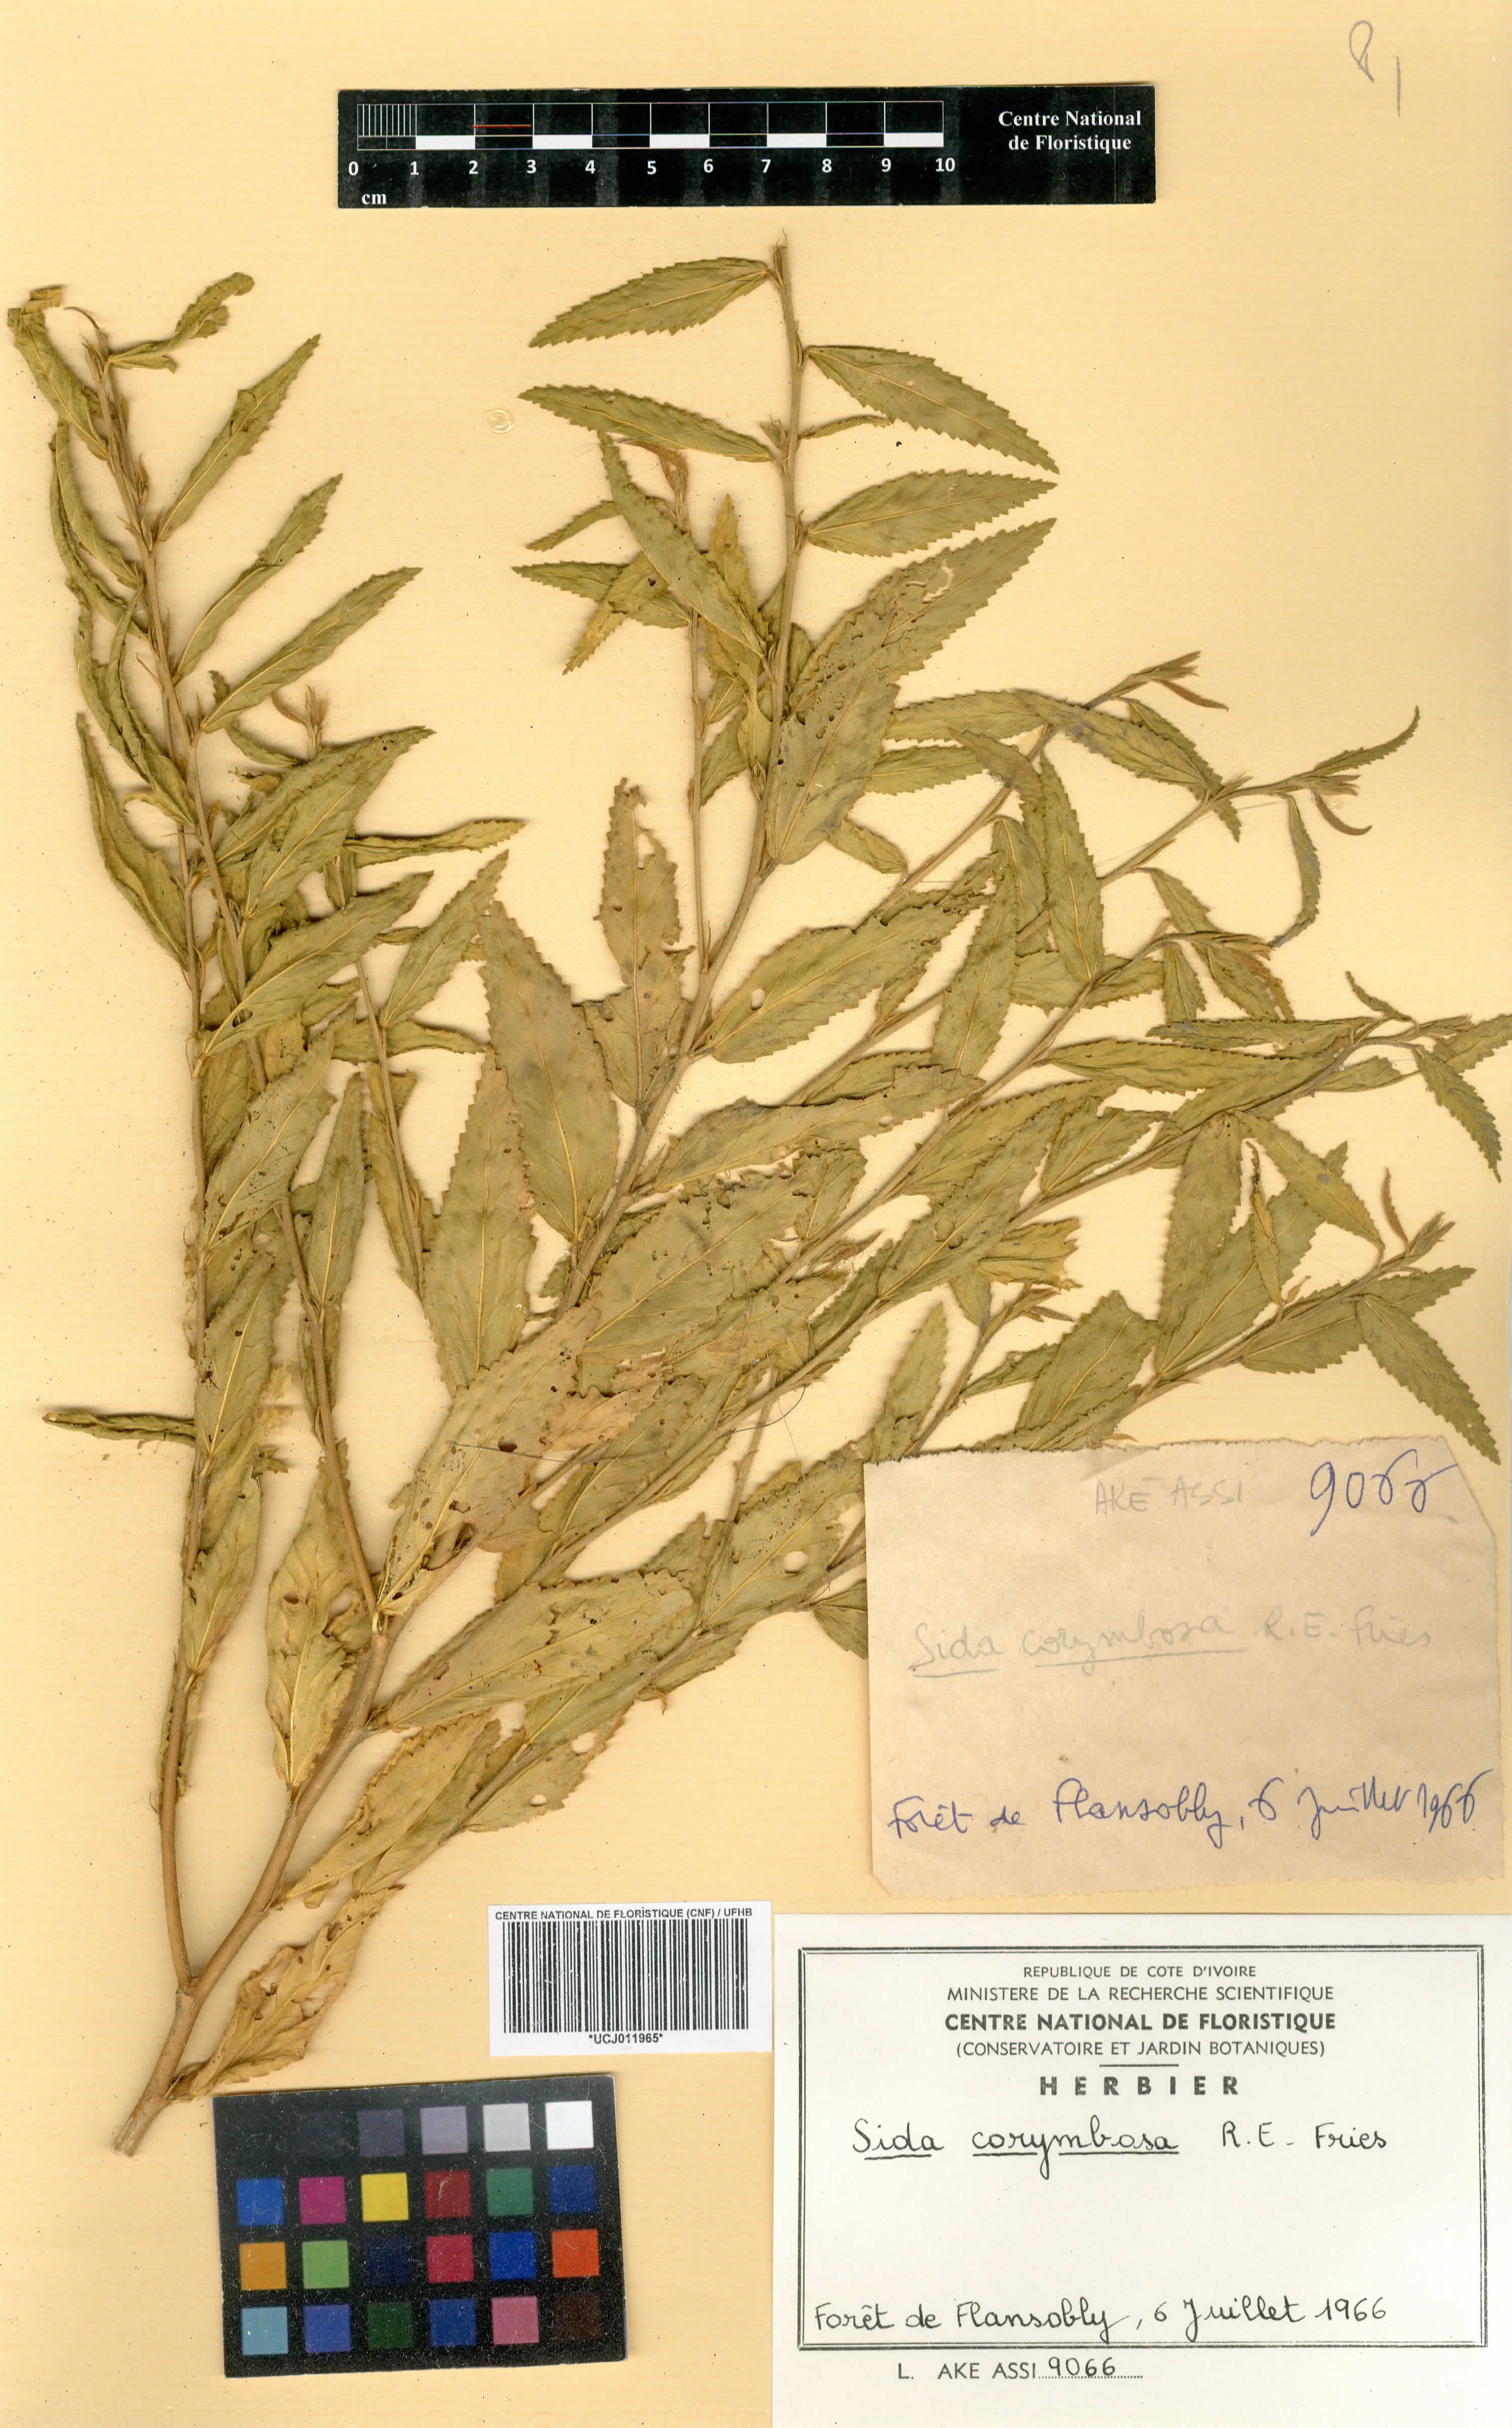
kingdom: Plantae
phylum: Tracheophyta
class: Magnoliopsida
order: Malvales
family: Malvaceae
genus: Sida
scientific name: Sida collina
